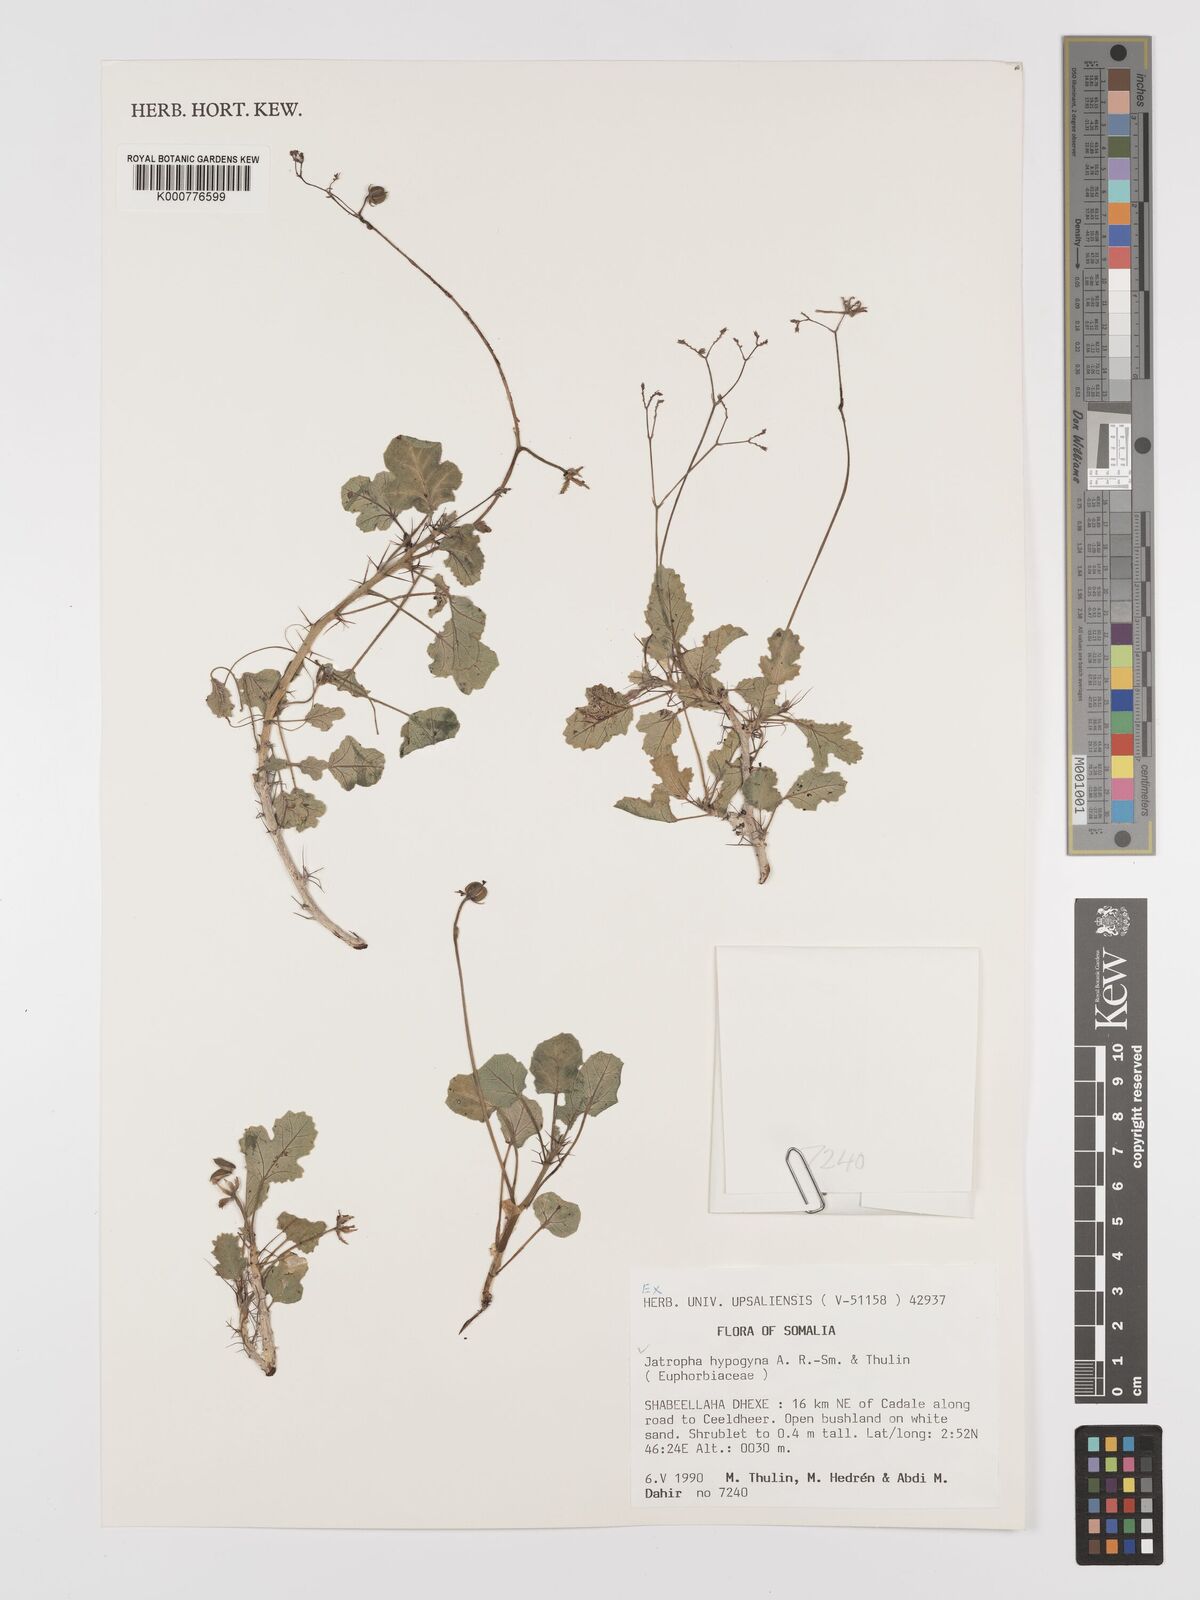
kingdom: Plantae
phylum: Tracheophyta
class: Magnoliopsida
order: Malpighiales
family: Euphorbiaceae
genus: Jatropha
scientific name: Jatropha hypogyna
